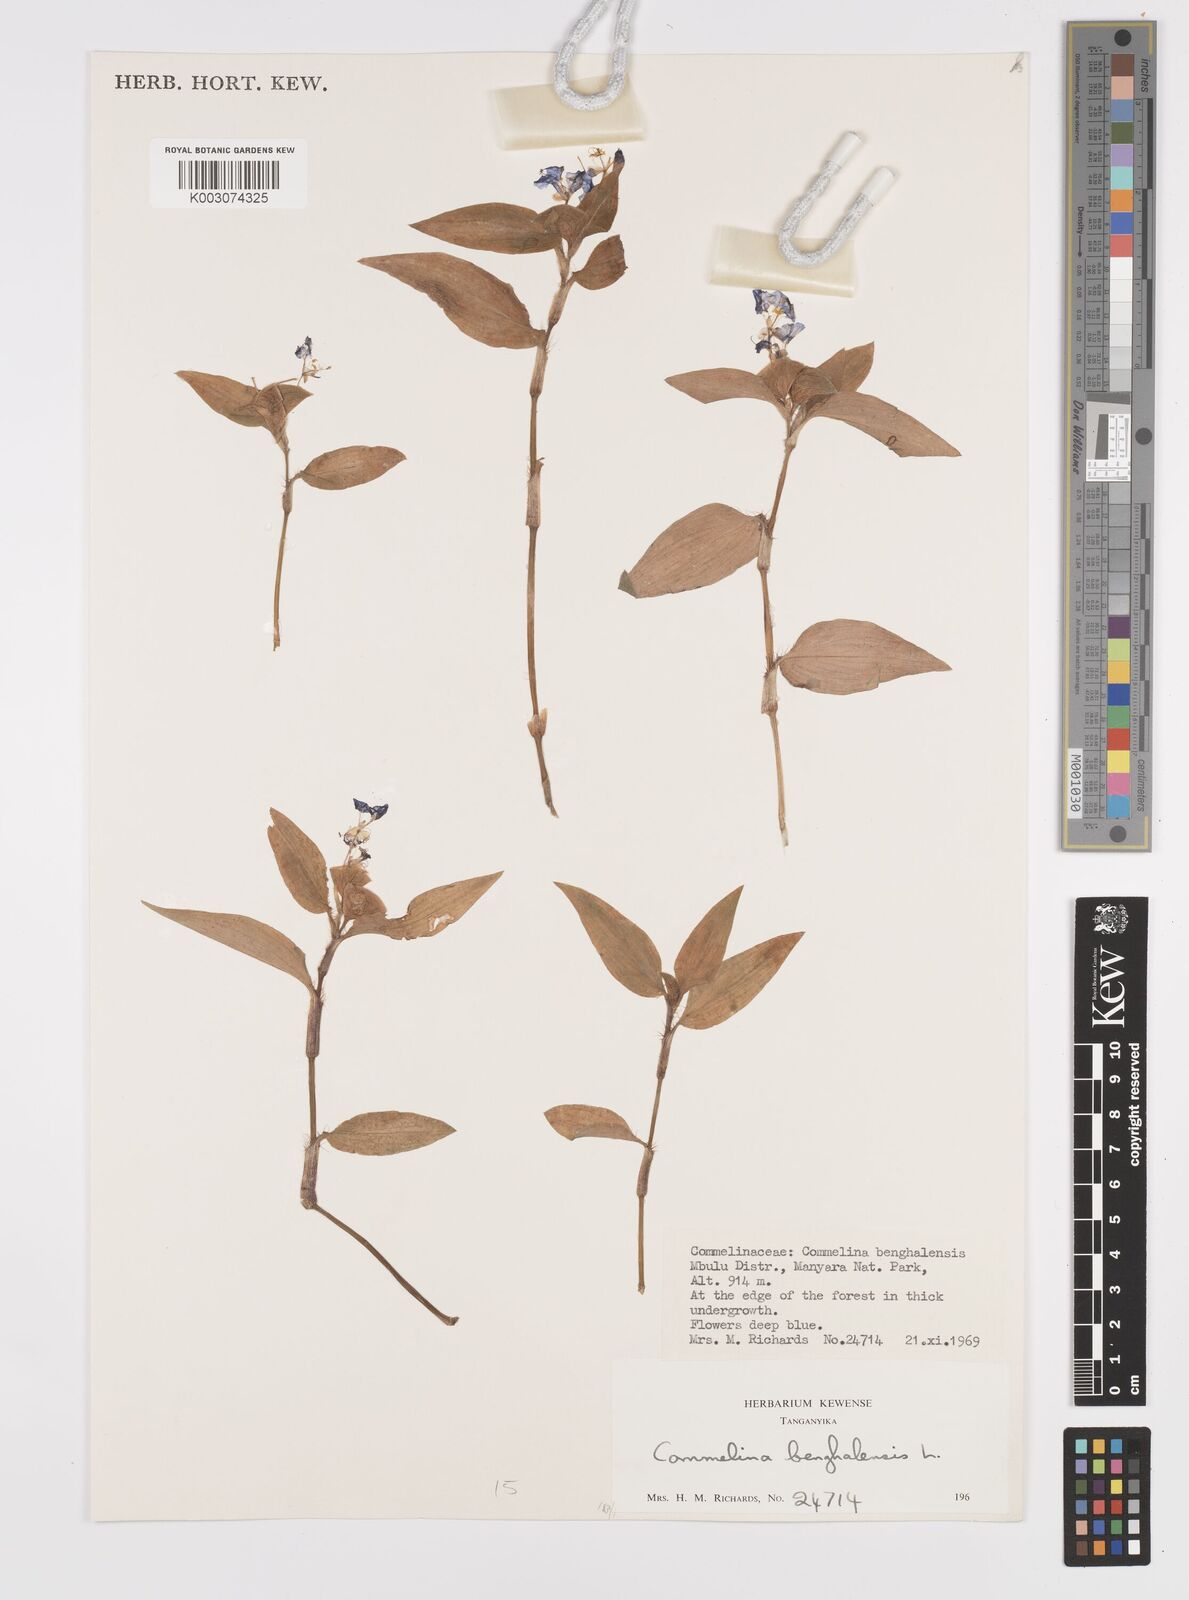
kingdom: Plantae
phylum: Tracheophyta
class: Liliopsida
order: Commelinales
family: Commelinaceae
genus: Commelina
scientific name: Commelina benghalensis
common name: Jio
